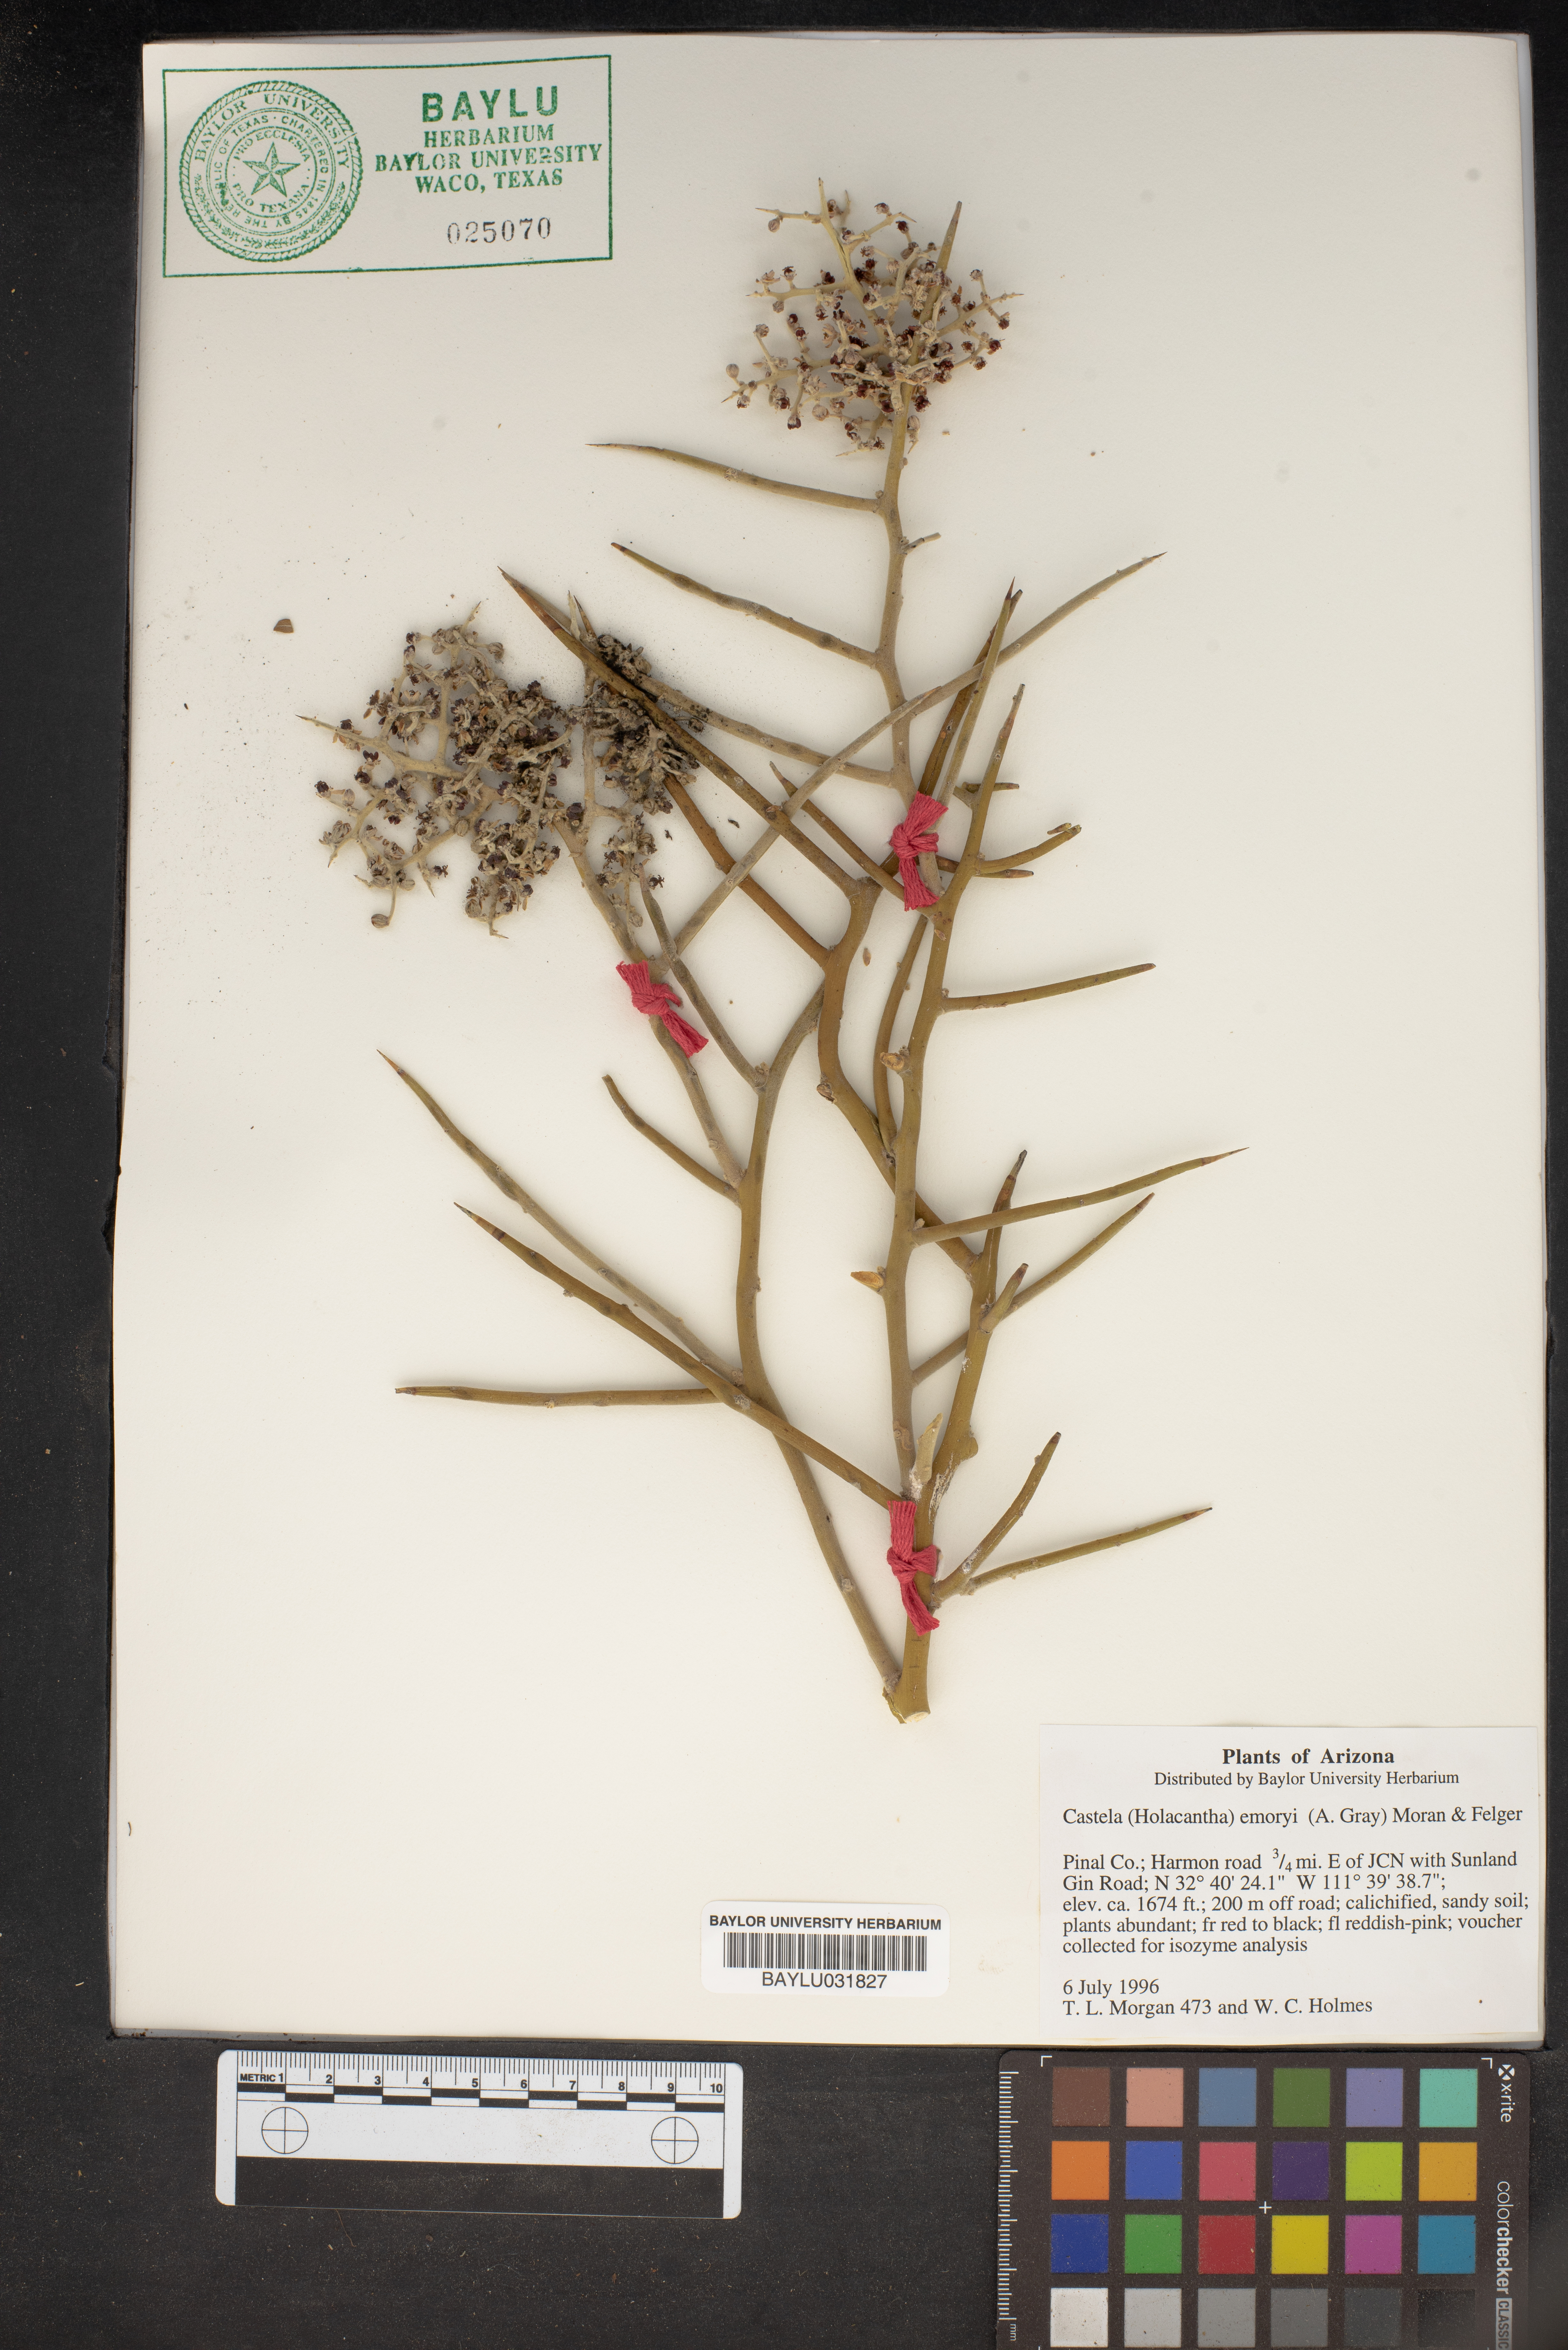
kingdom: Plantae
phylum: Tracheophyta
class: Magnoliopsida
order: Sapindales
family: Simaroubaceae
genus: Holacantha
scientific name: Holacantha emoryi
